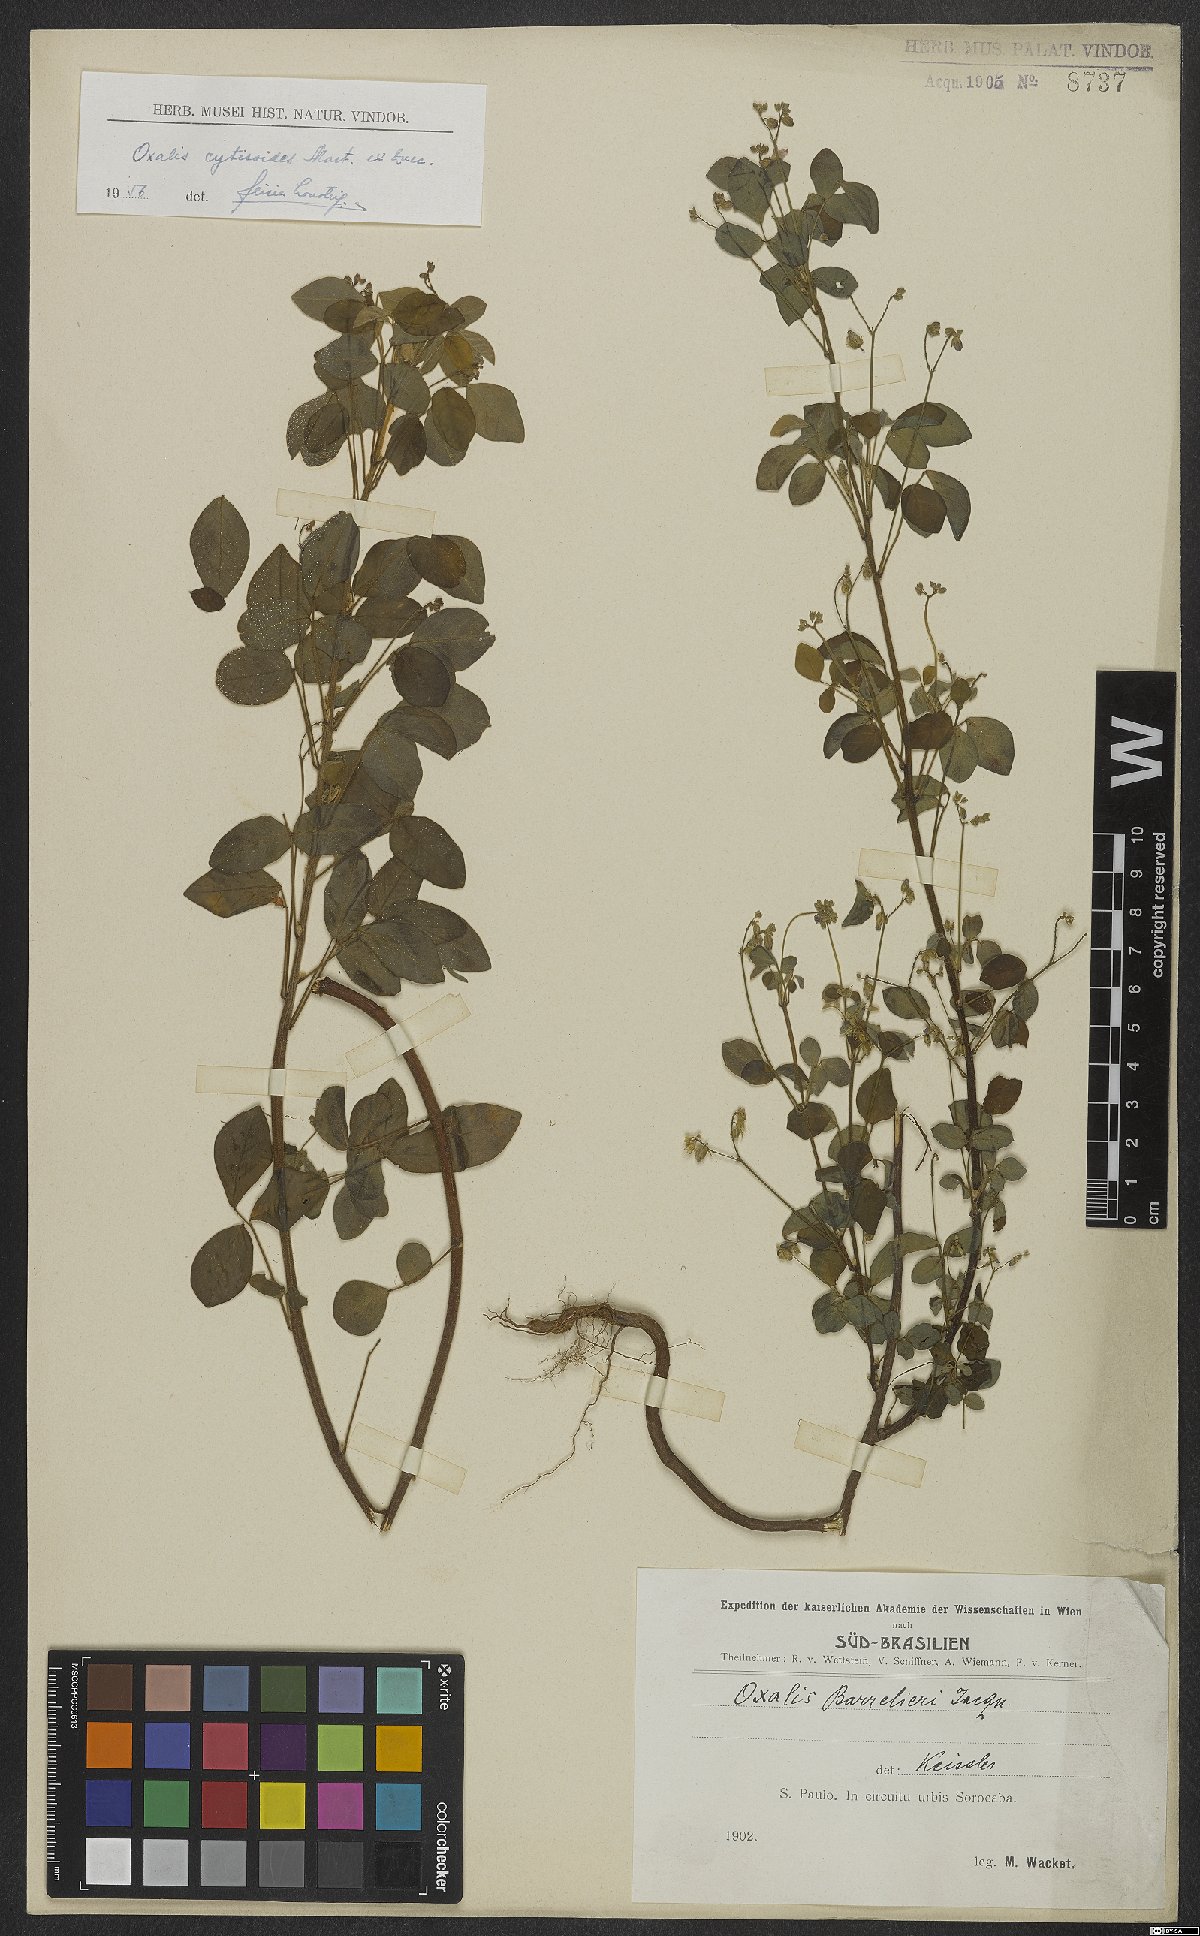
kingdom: Plantae
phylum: Tracheophyta
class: Magnoliopsida
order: Oxalidales
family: Oxalidaceae
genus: Oxalis
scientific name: Oxalis cytisoides
